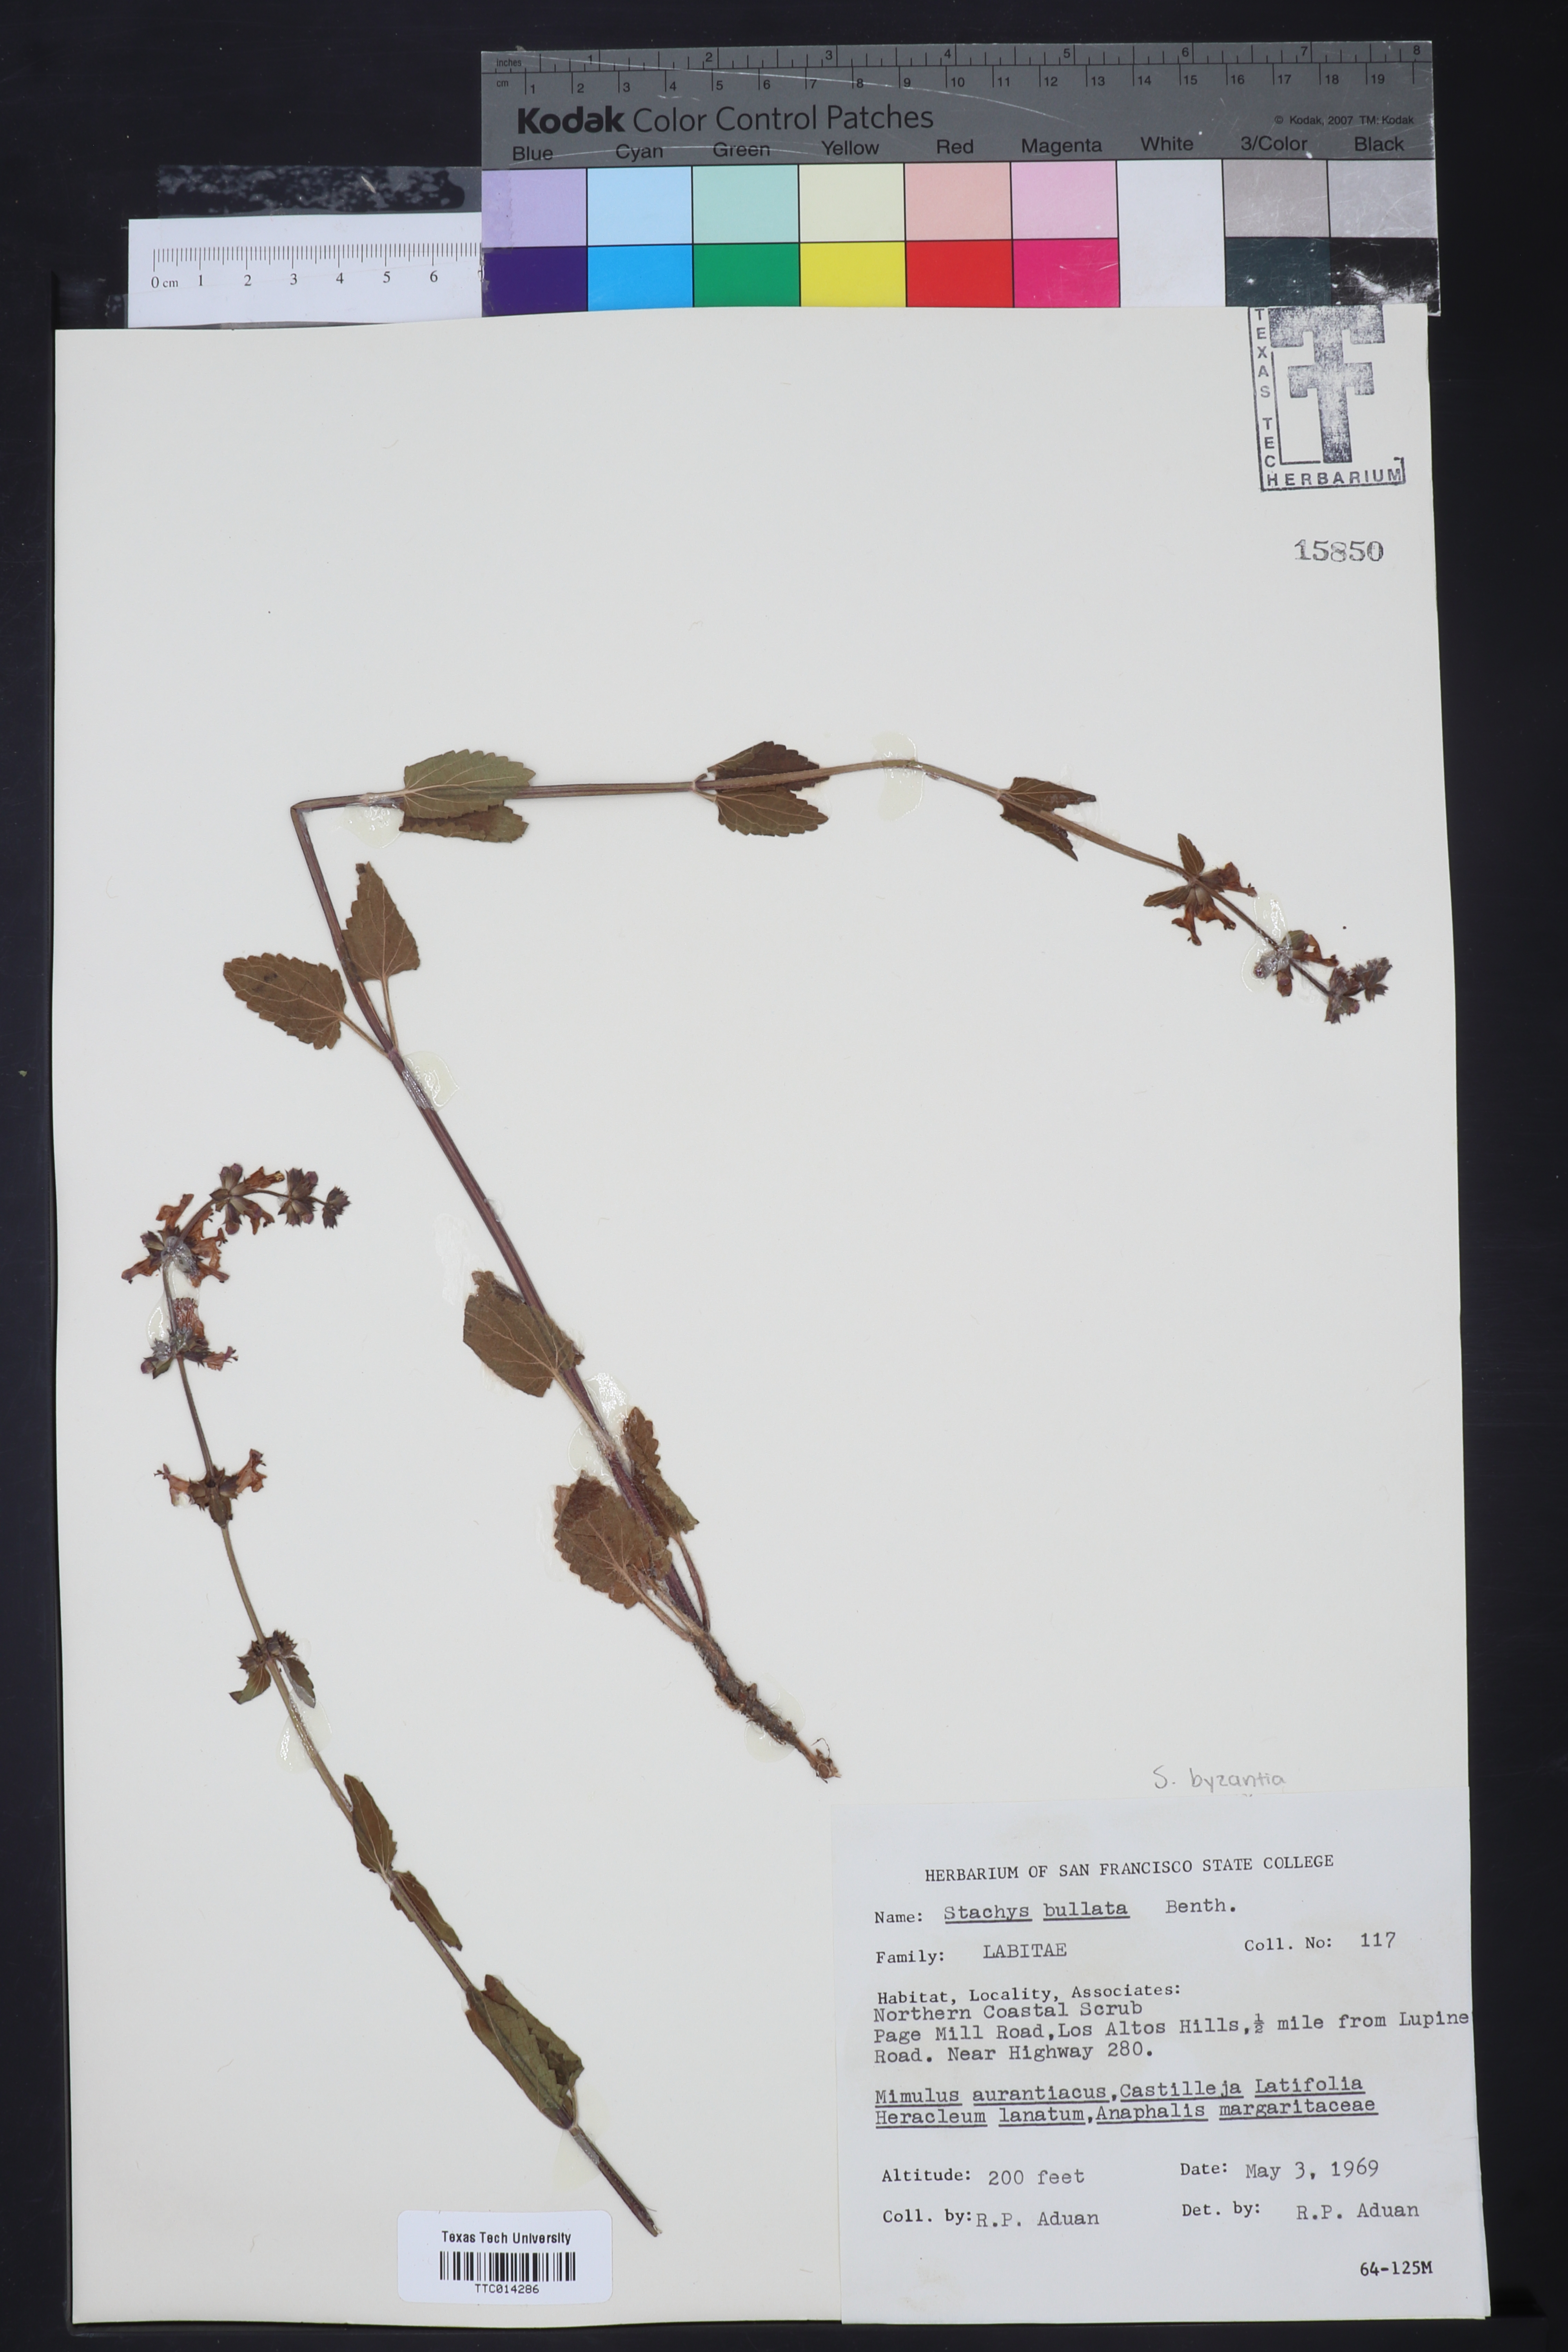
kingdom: Plantae
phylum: Tracheophyta
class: Magnoliopsida
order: Lamiales
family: Lamiaceae
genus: Stachys
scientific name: Stachys bullata
